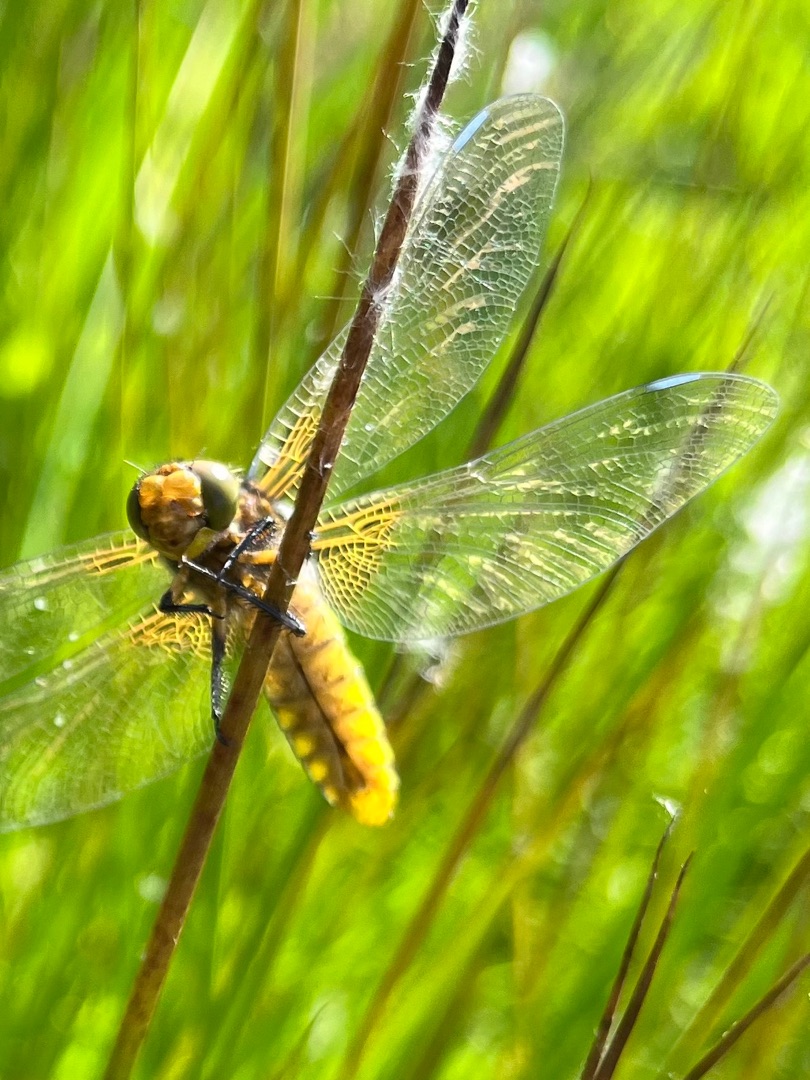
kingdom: Animalia
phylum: Arthropoda
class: Insecta
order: Odonata
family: Libellulidae
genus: Libellula
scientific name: Libellula depressa
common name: Blå libel
